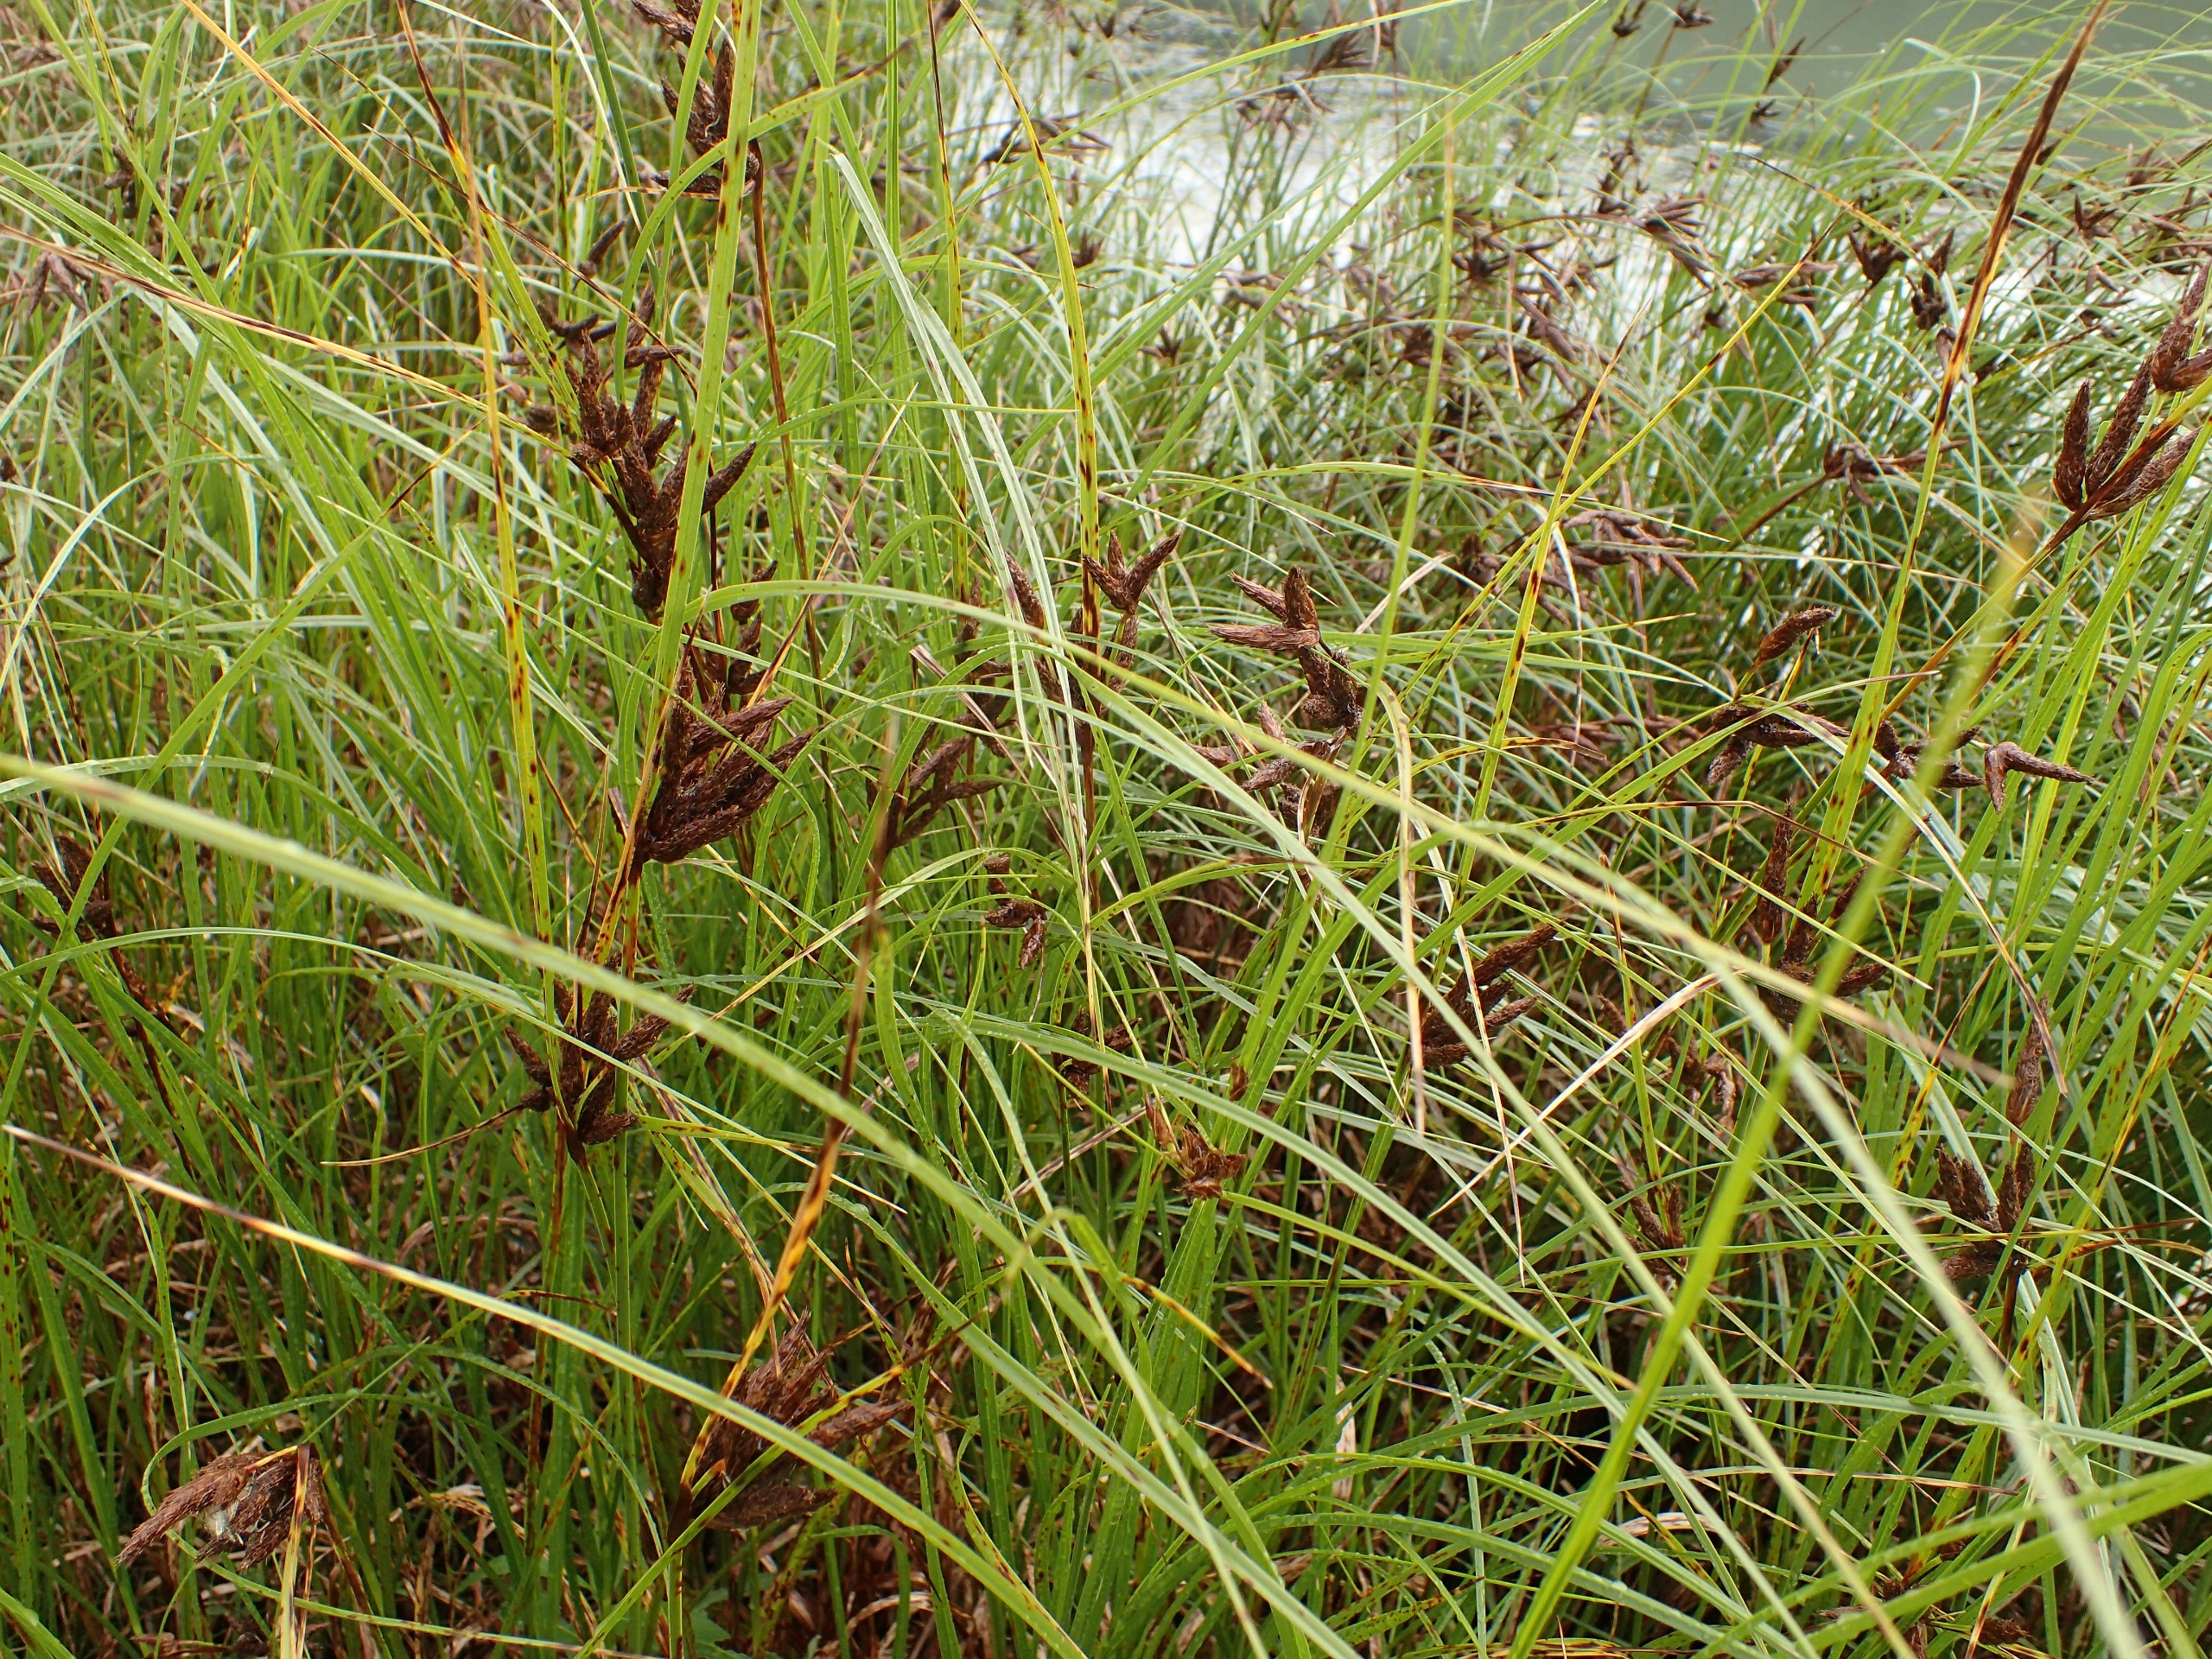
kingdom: Plantae
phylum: Tracheophyta
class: Liliopsida
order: Poales
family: Cyperaceae
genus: Bolboschoenus
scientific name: Bolboschoenus maritimus
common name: Strand-kogleaks
